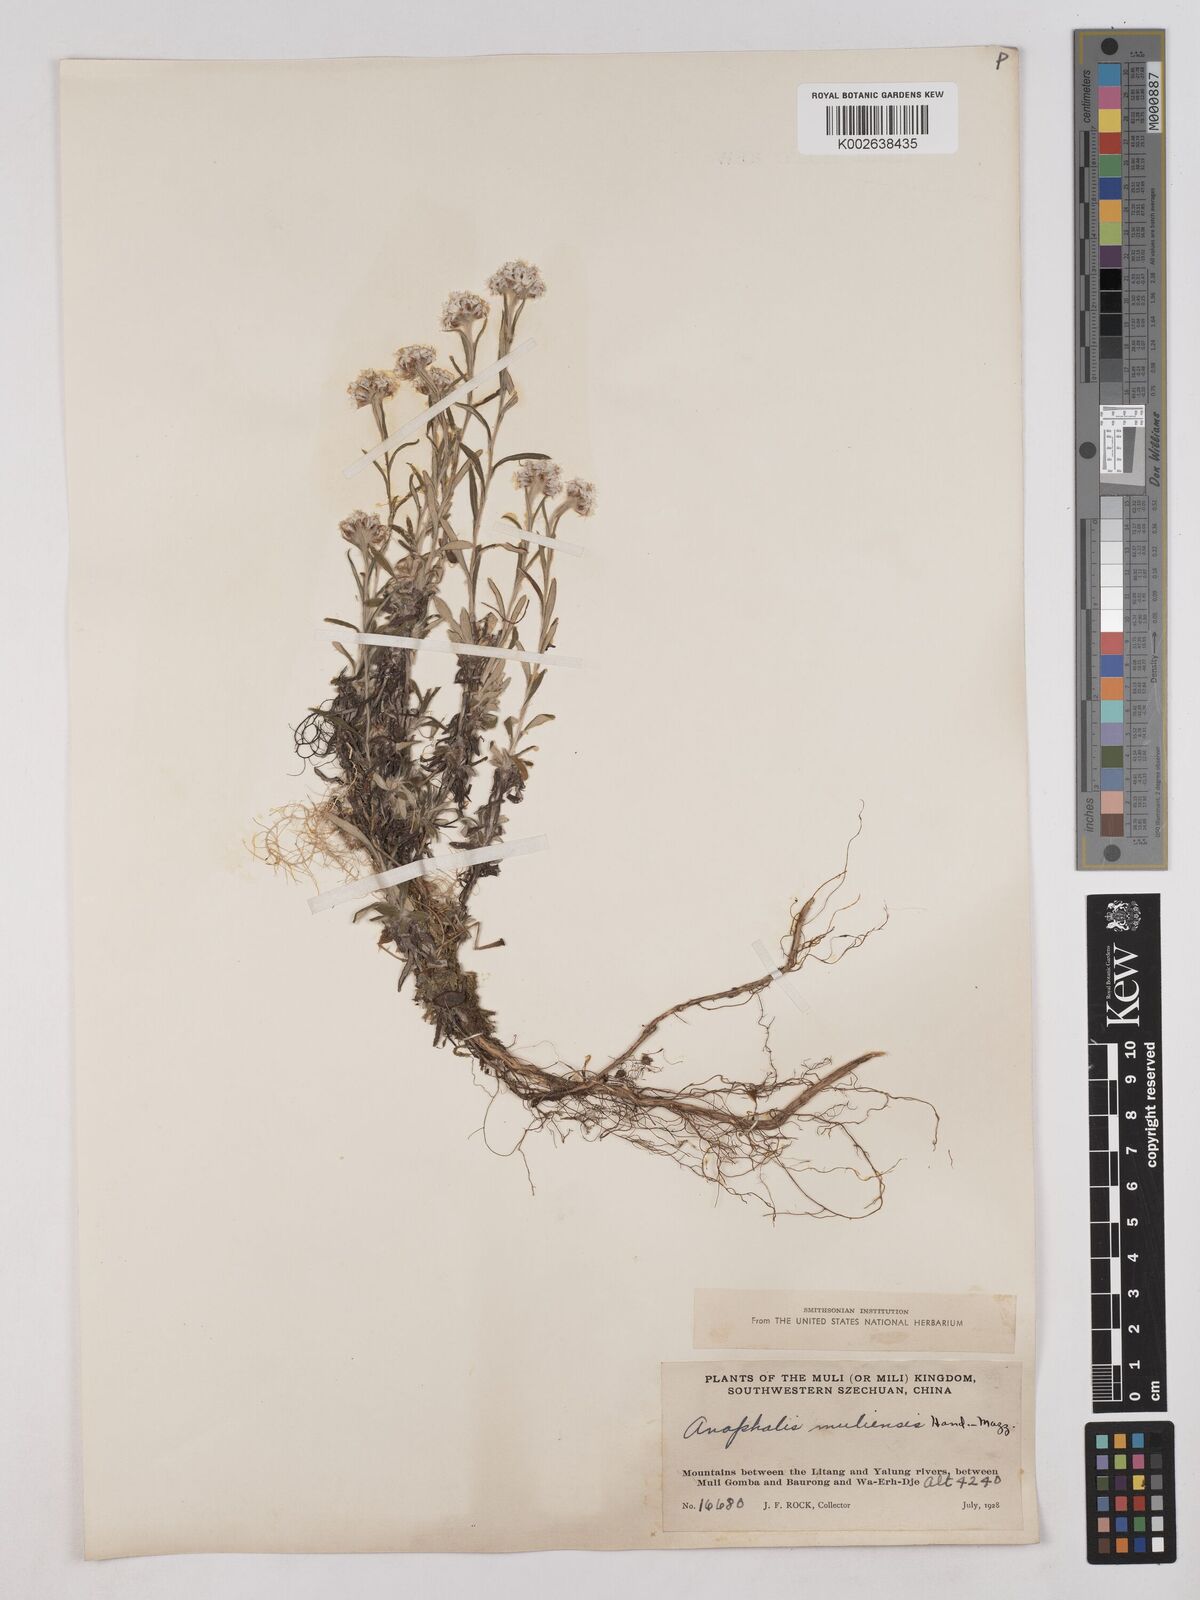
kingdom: Plantae
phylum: Tracheophyta
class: Magnoliopsida
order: Asterales
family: Asteraceae
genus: Anaphalis
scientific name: Anaphalis yunnanensis
